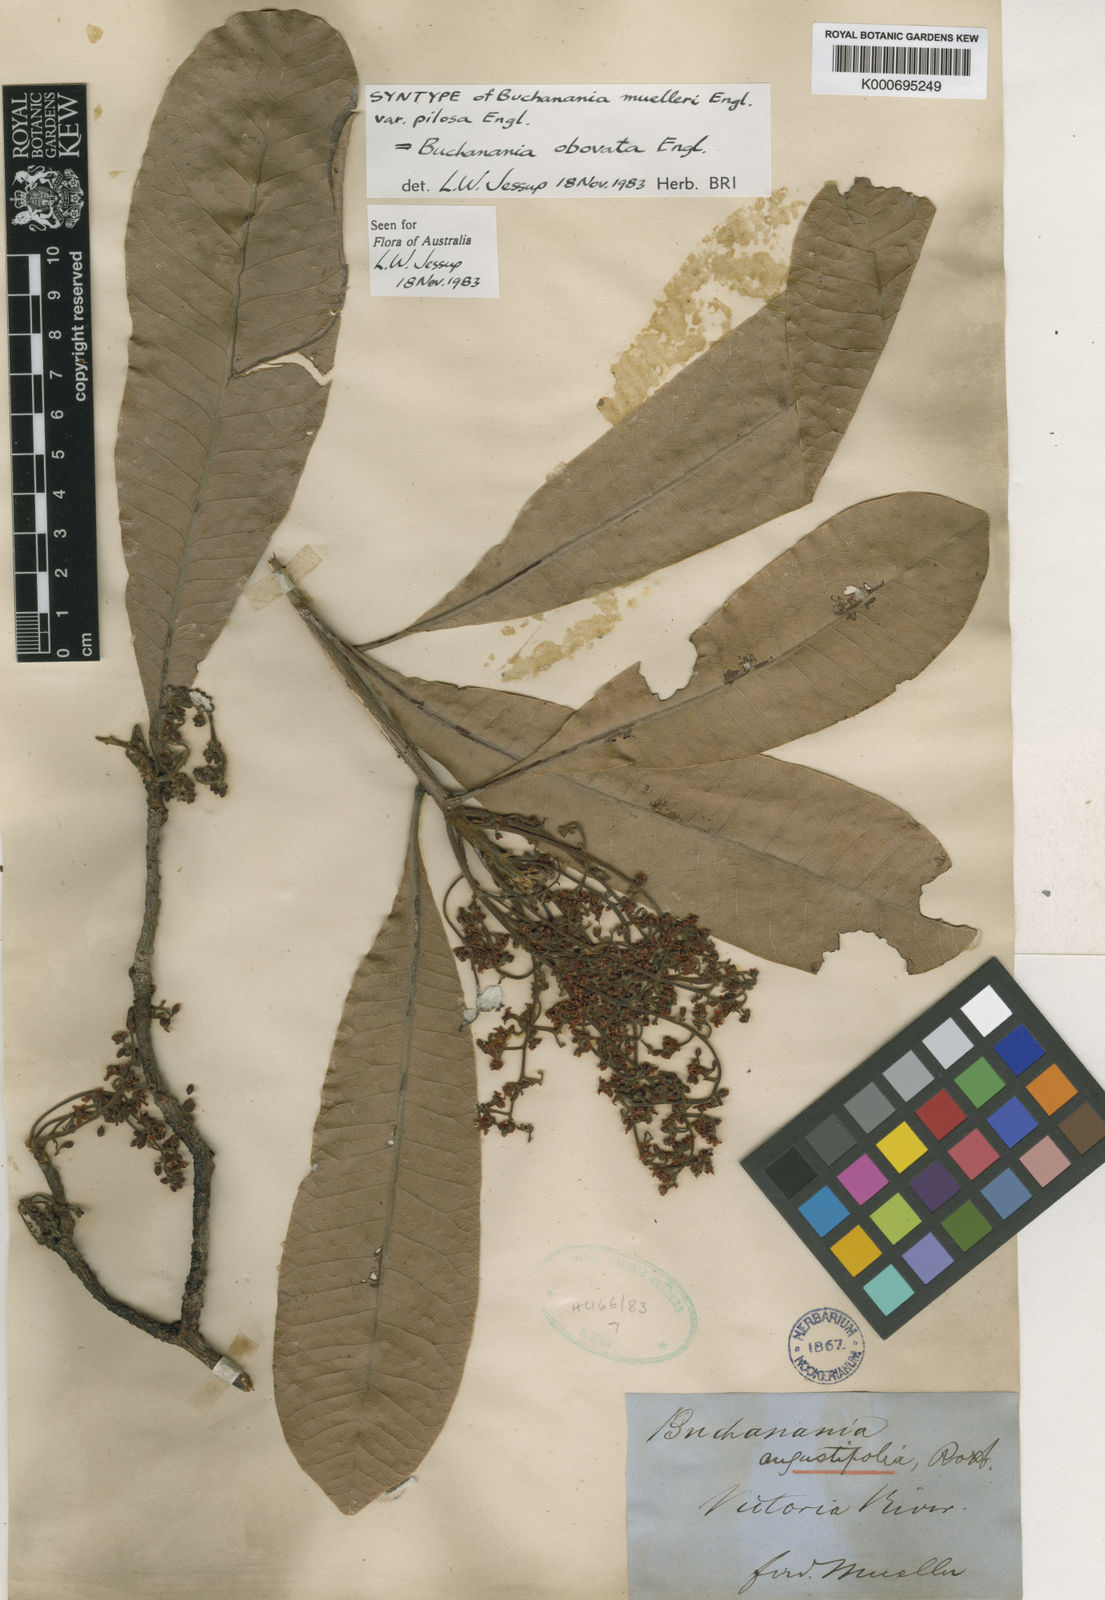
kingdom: Plantae
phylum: Tracheophyta
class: Magnoliopsida
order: Sapindales
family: Anacardiaceae
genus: Buchanania
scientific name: Buchanania arborescens
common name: Sparrow’s mango
